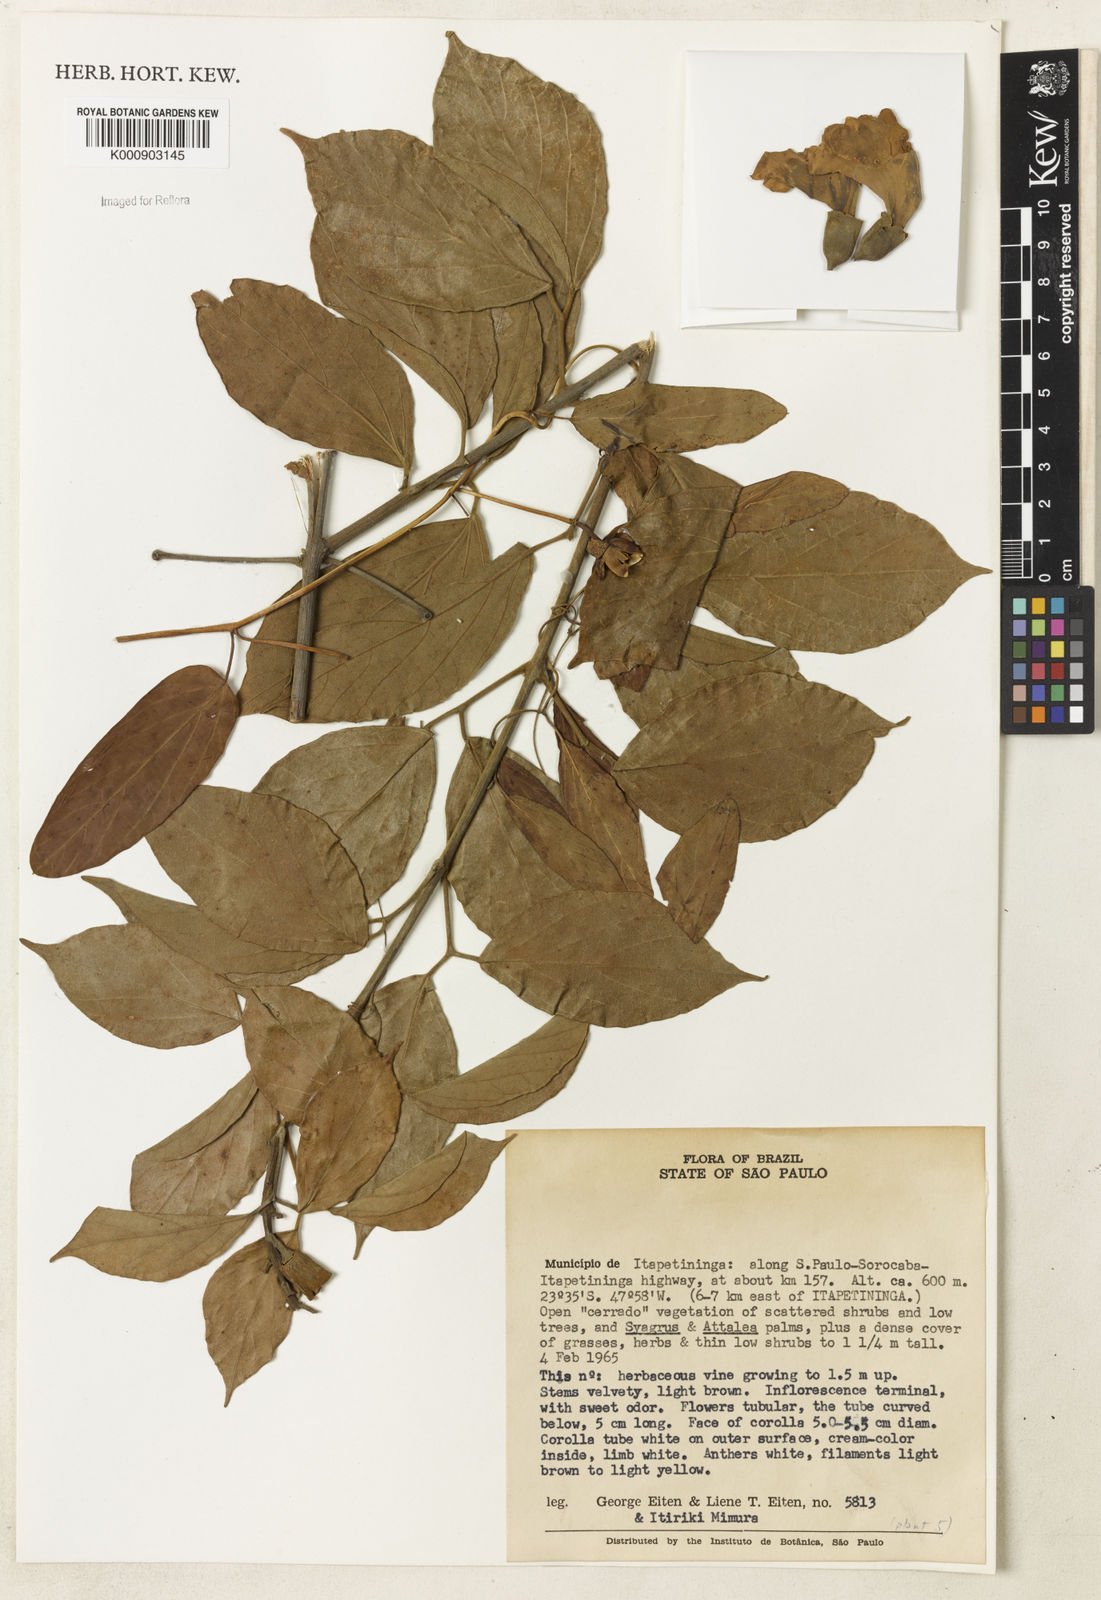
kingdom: Plantae
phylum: Tracheophyta
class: Magnoliopsida
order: Lamiales
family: Bignoniaceae
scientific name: Bignoniaceae
